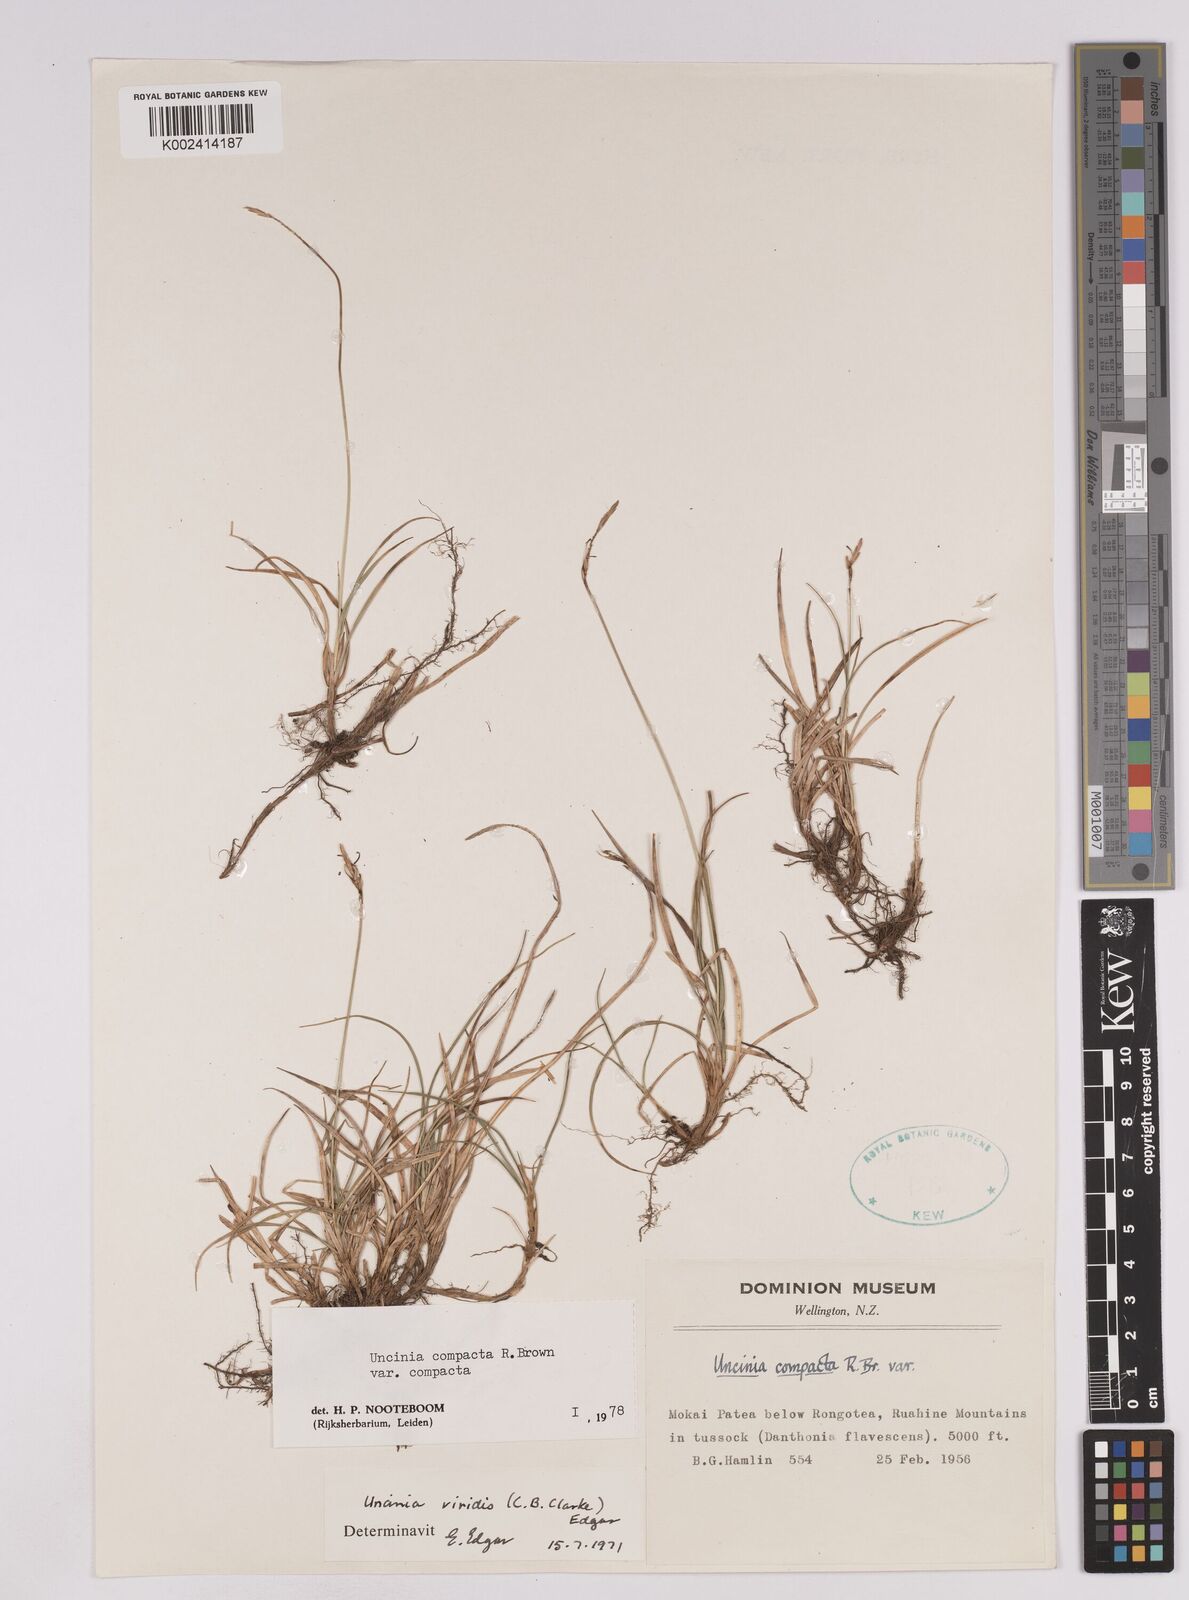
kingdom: Plantae
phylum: Tracheophyta
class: Liliopsida
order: Poales
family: Cyperaceae
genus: Carex
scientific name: Carex austrocompacta
